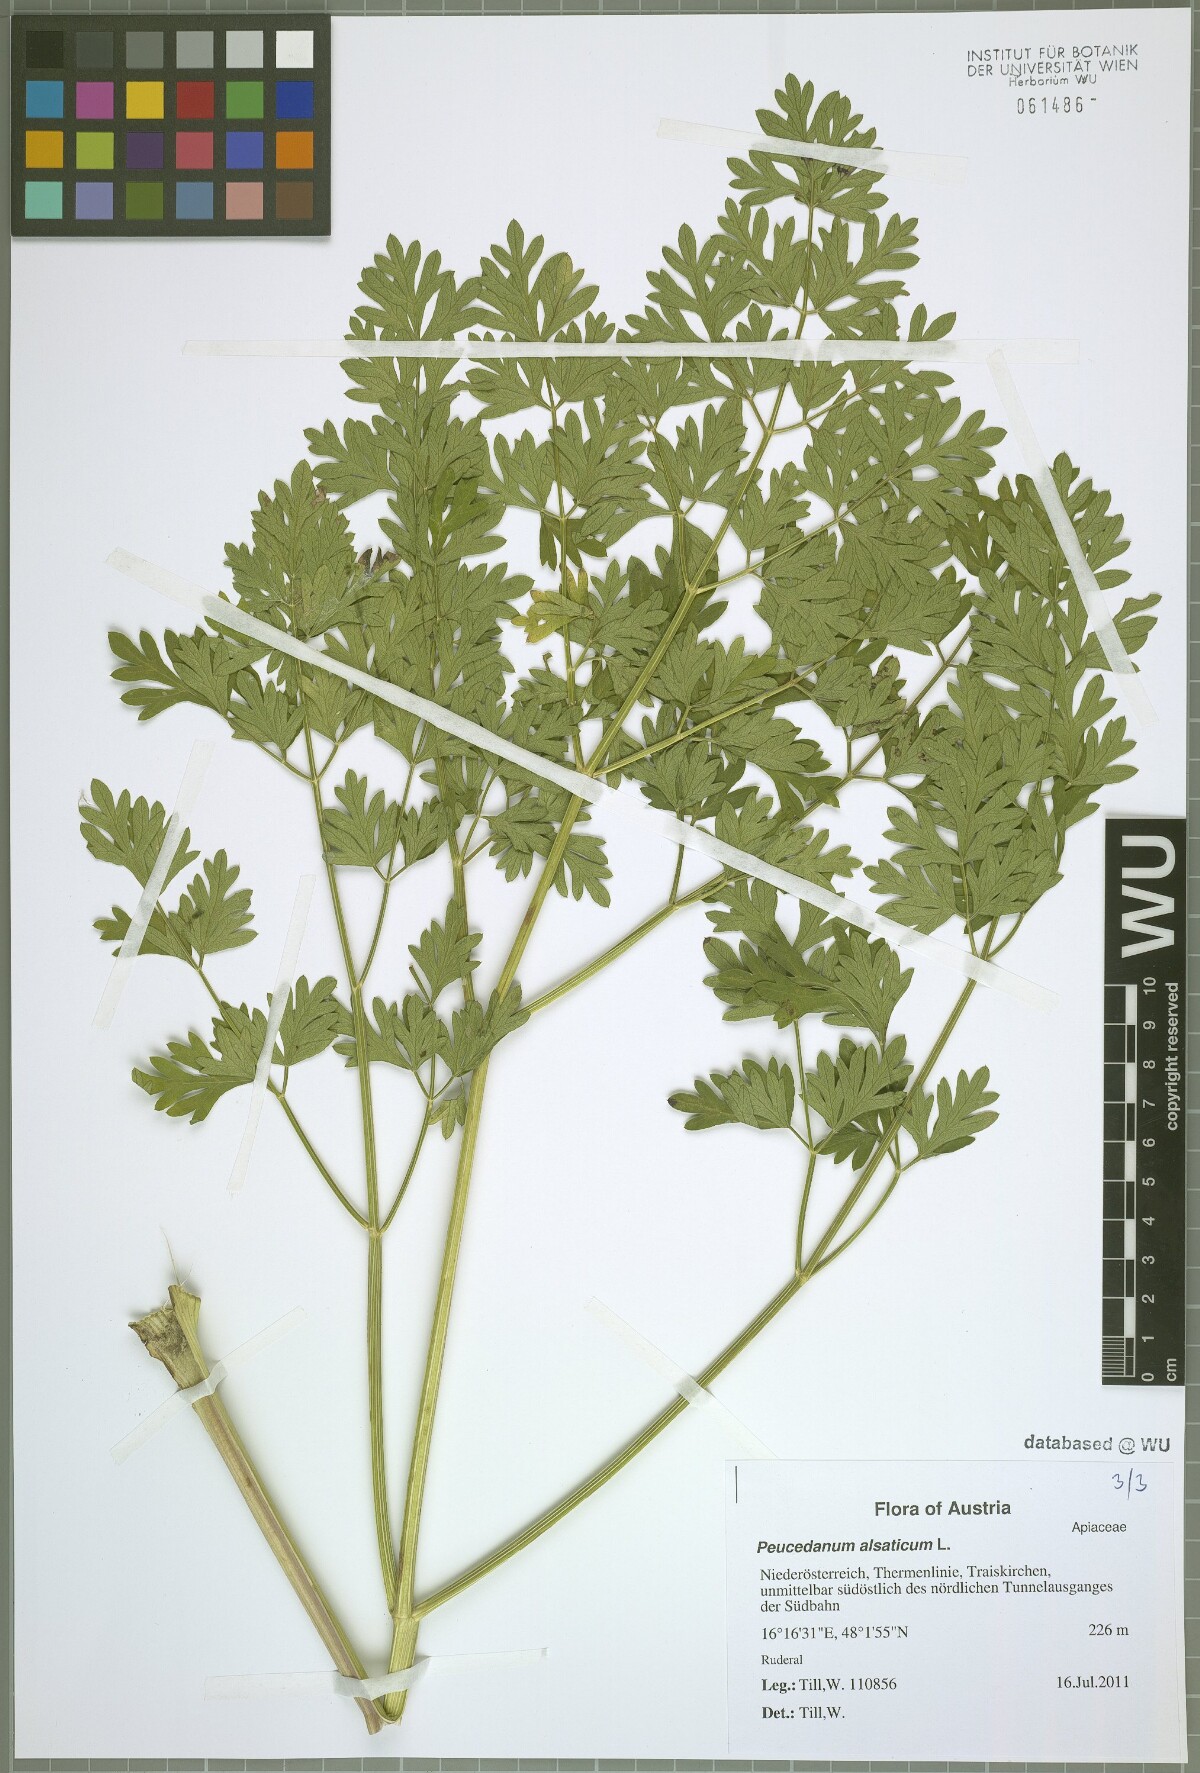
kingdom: Plantae
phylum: Tracheophyta
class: Magnoliopsida
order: Apiales
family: Apiaceae
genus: Xanthoselinum
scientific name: Xanthoselinum alsaticum
